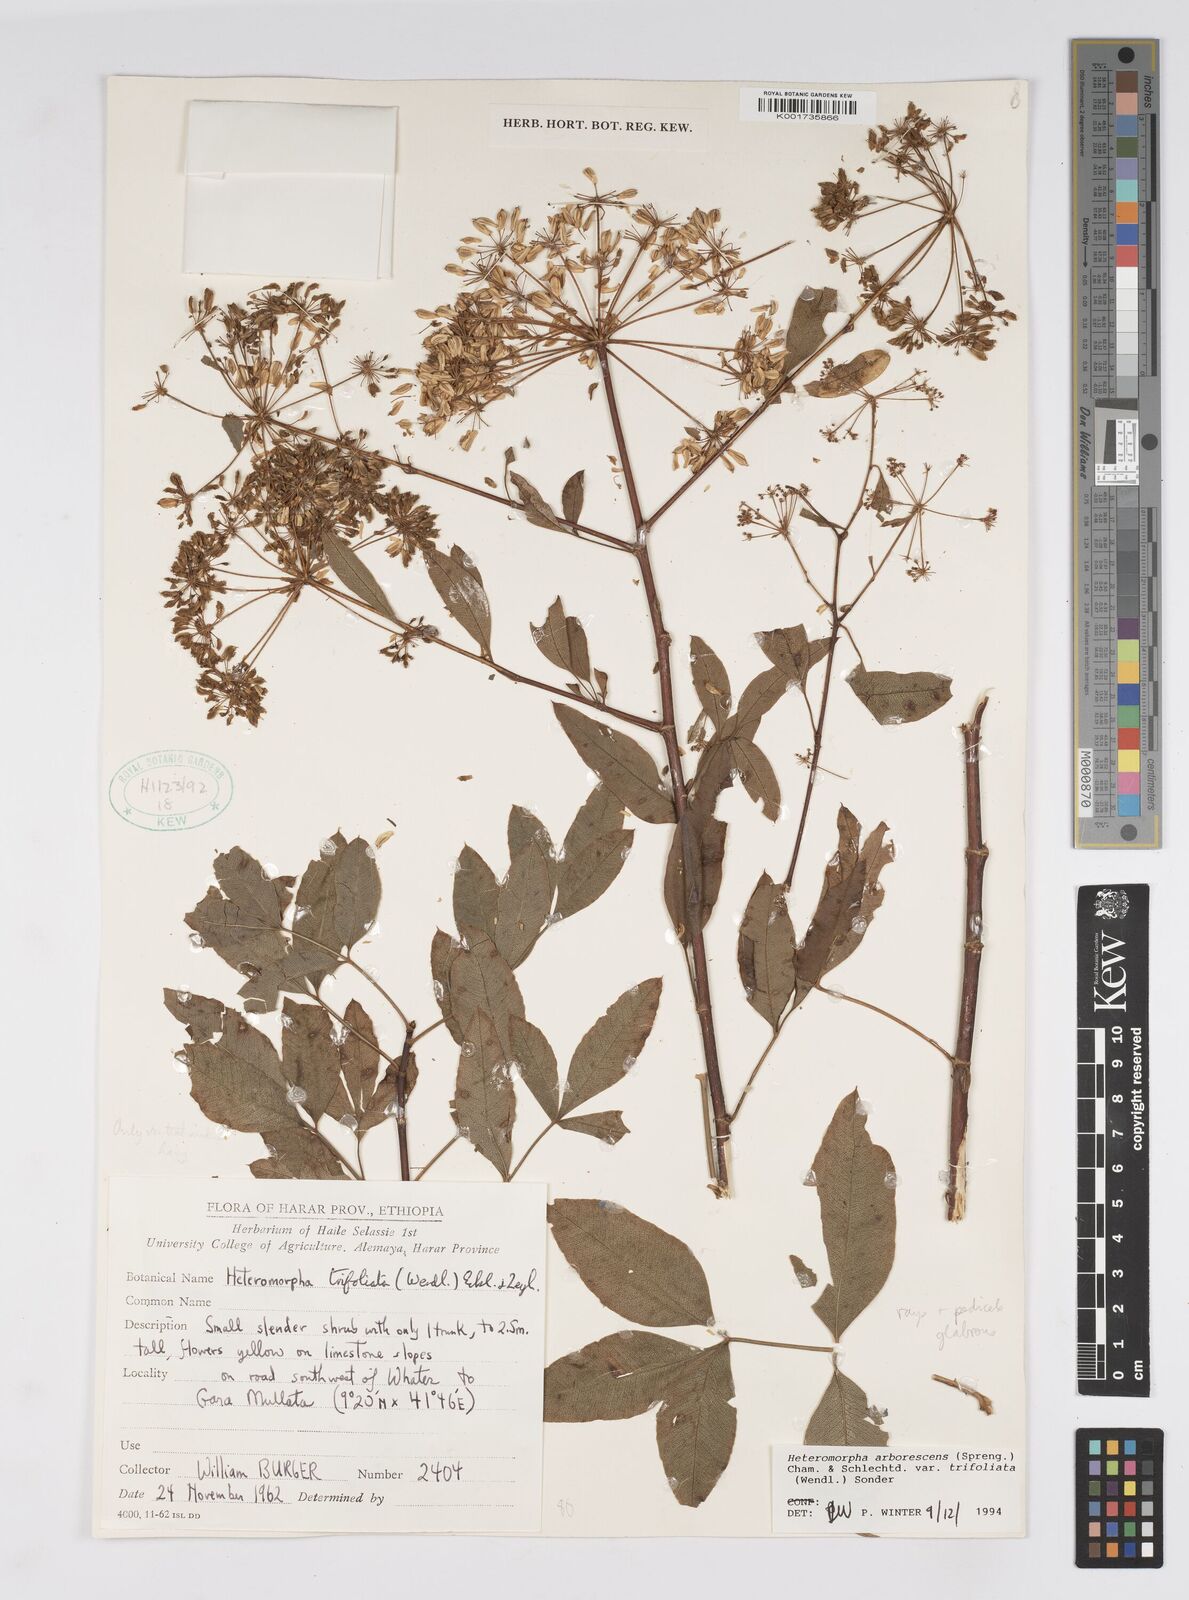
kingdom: Plantae
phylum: Tracheophyta
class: Magnoliopsida
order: Apiales
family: Apiaceae
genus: Heteromorpha
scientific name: Heteromorpha arborescens
